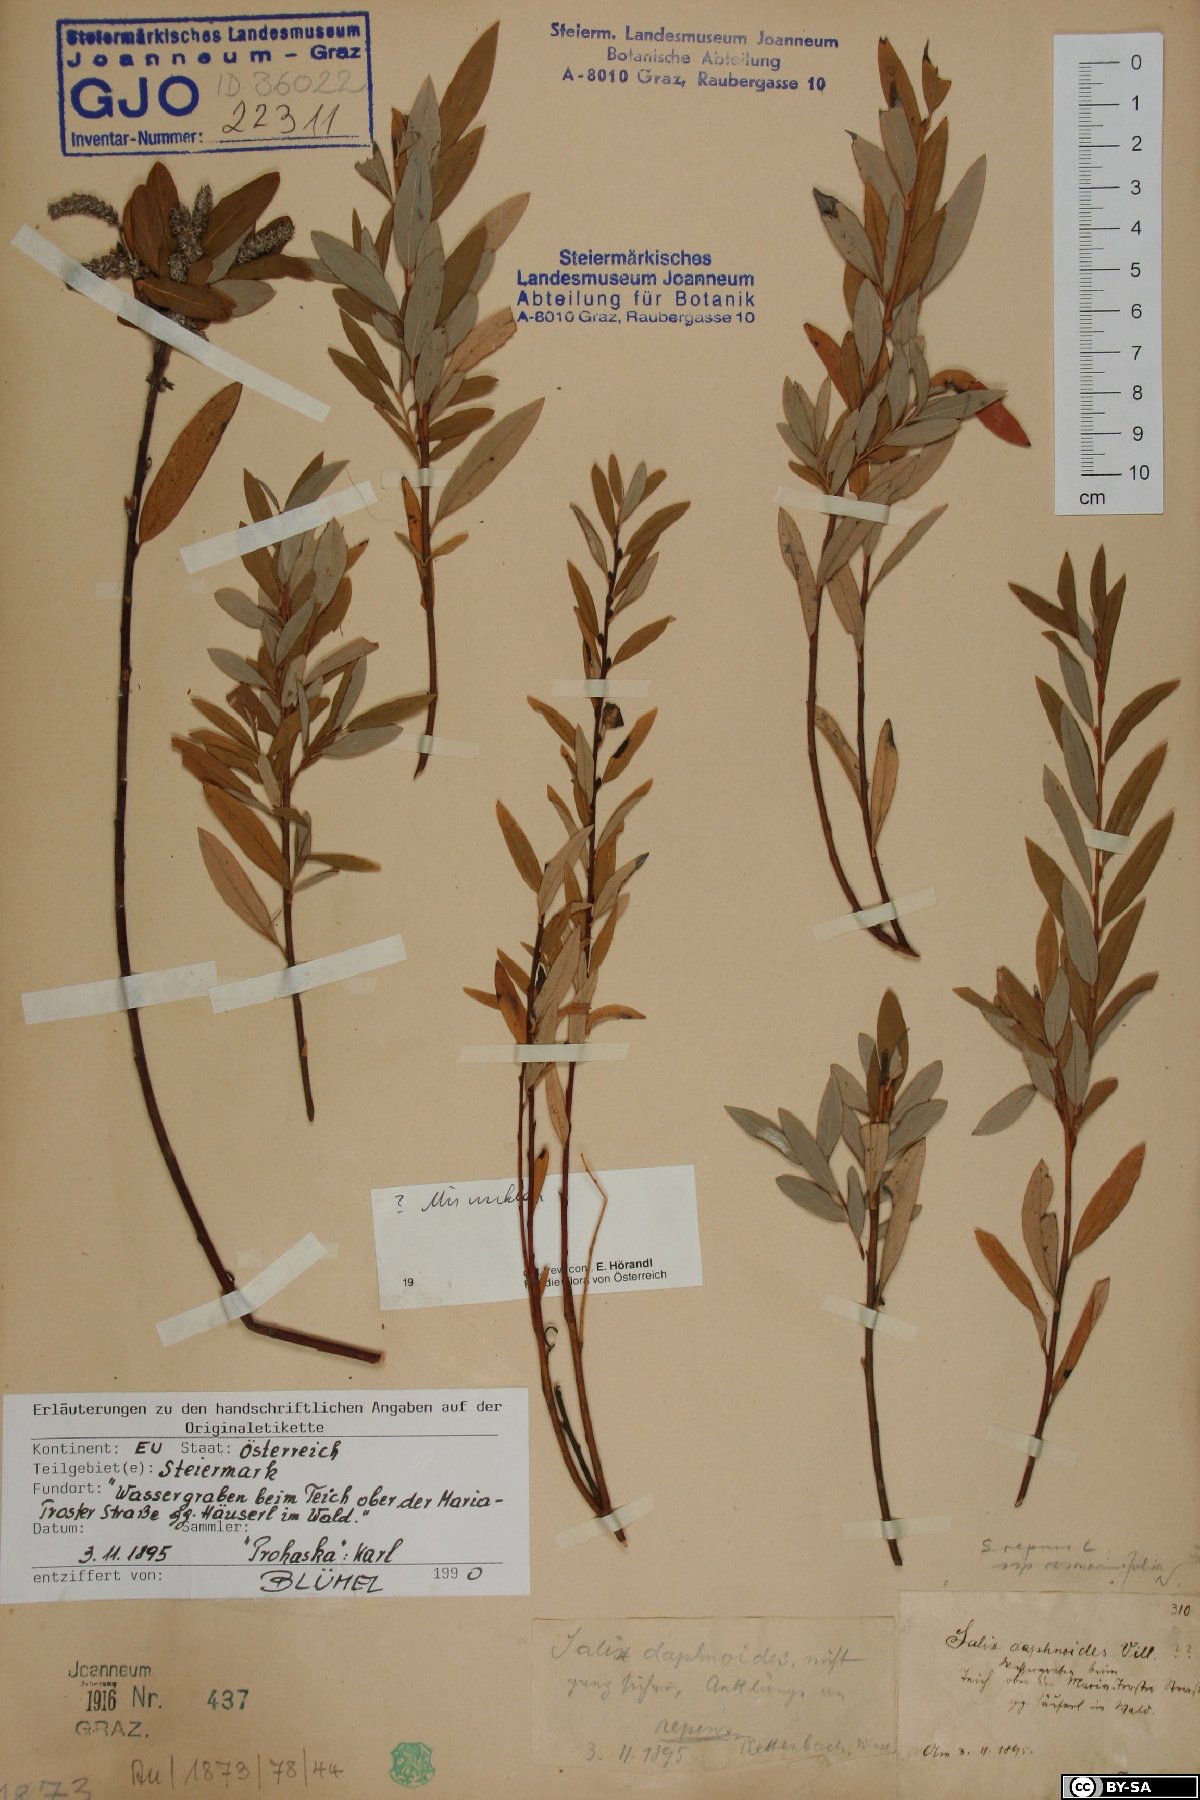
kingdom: Plantae
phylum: Tracheophyta
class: Magnoliopsida
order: Malpighiales
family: Salicaceae
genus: Salix
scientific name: Salix repens
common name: Creeping willow
